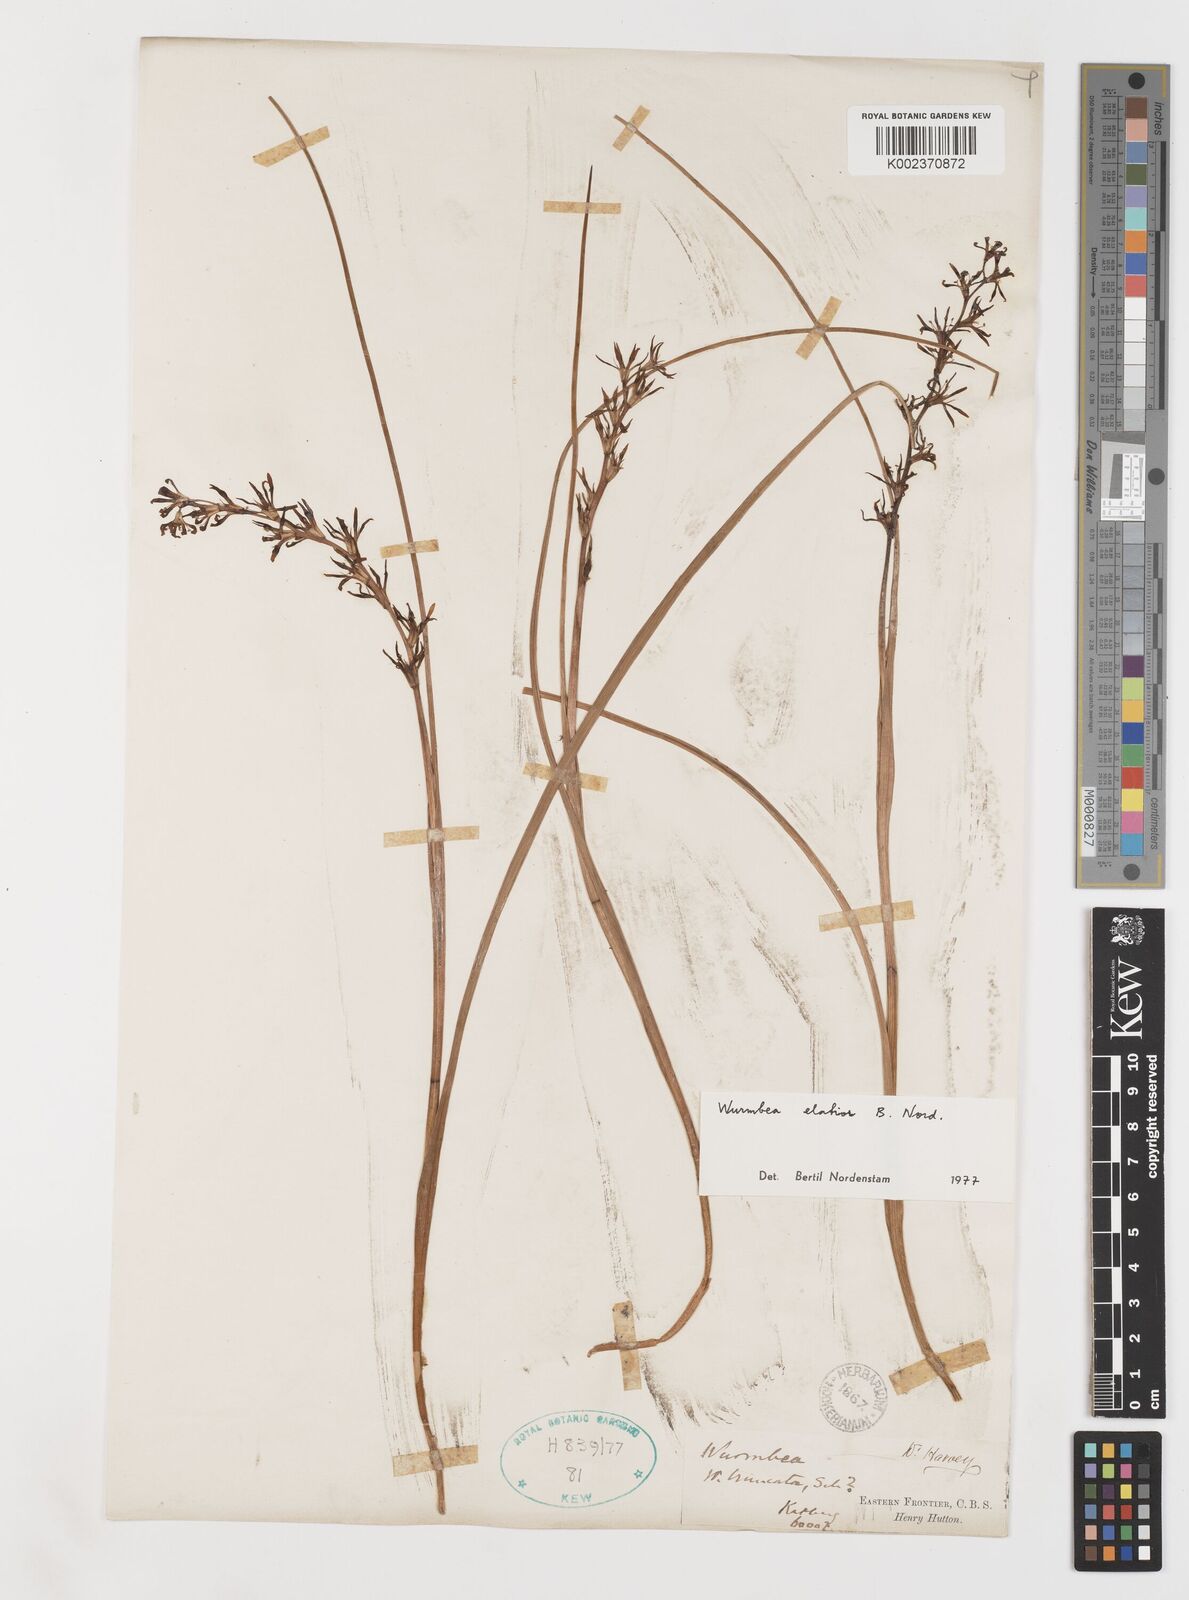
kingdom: Plantae
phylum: Tracheophyta
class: Liliopsida
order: Liliales
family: Colchicaceae
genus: Wurmbea
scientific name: Wurmbea elatior
